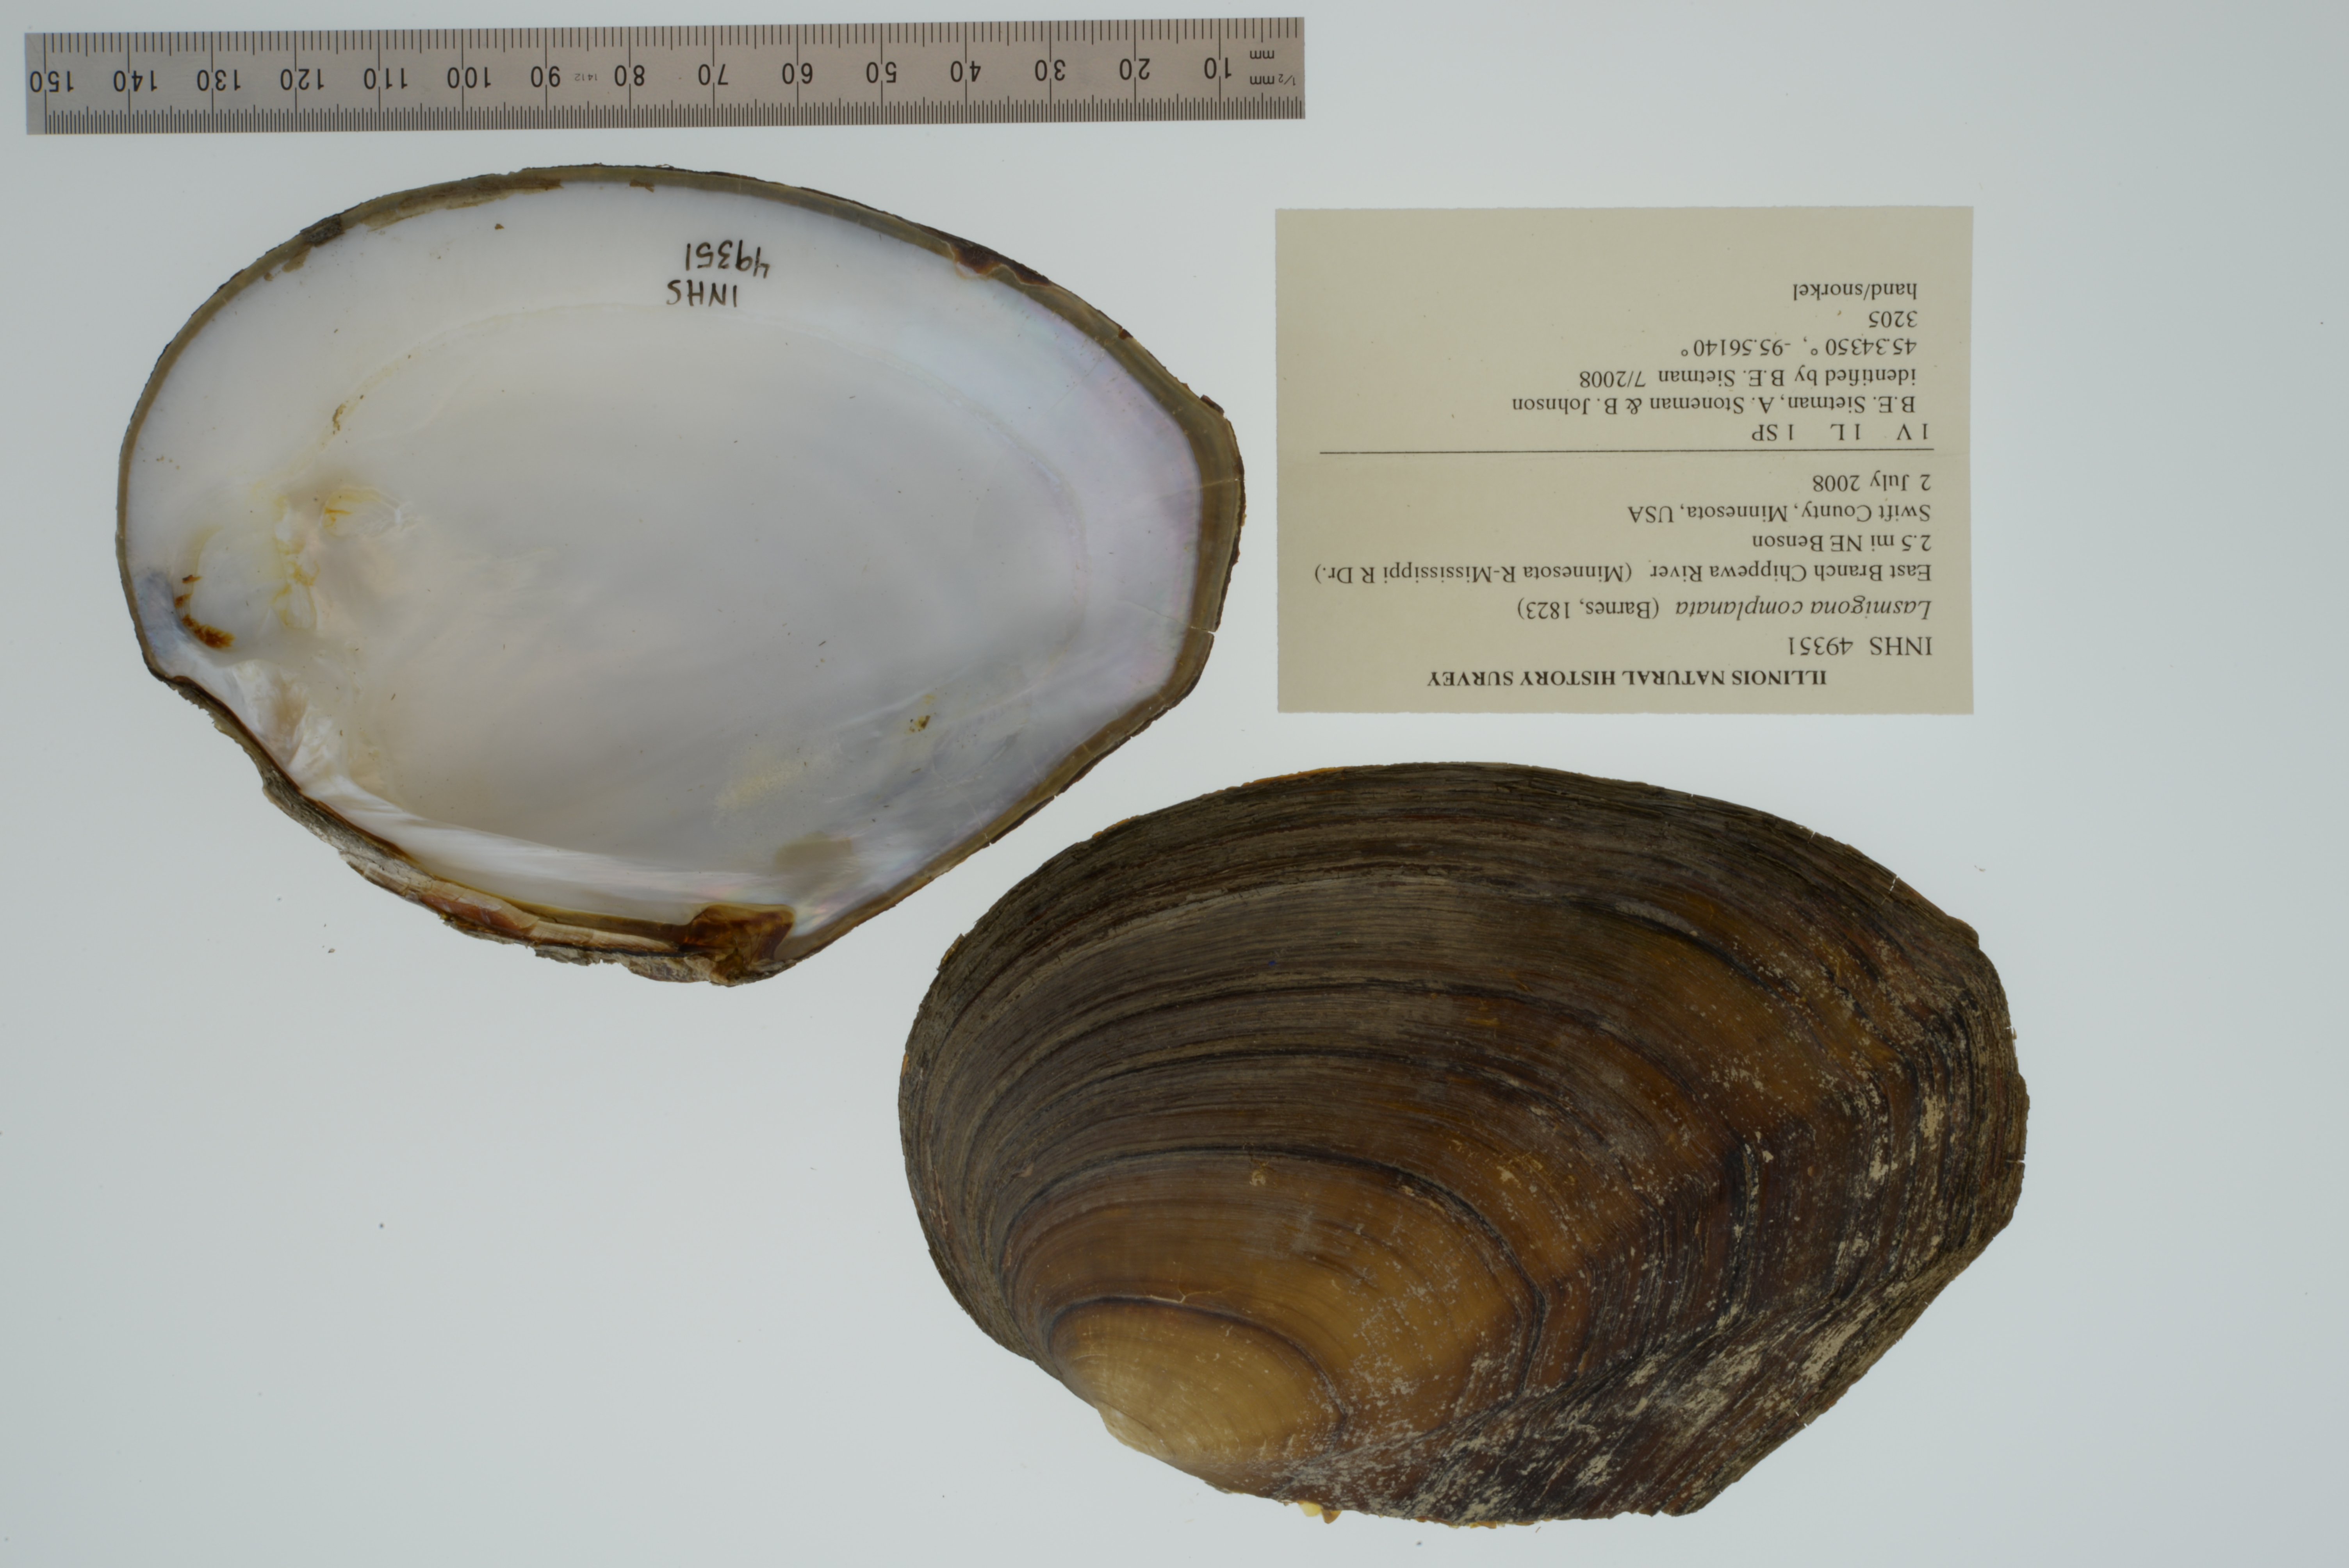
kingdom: Animalia
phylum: Mollusca
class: Bivalvia
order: Unionida
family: Unionidae
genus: Lasmigona
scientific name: Lasmigona complanata
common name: White heelsplitter
